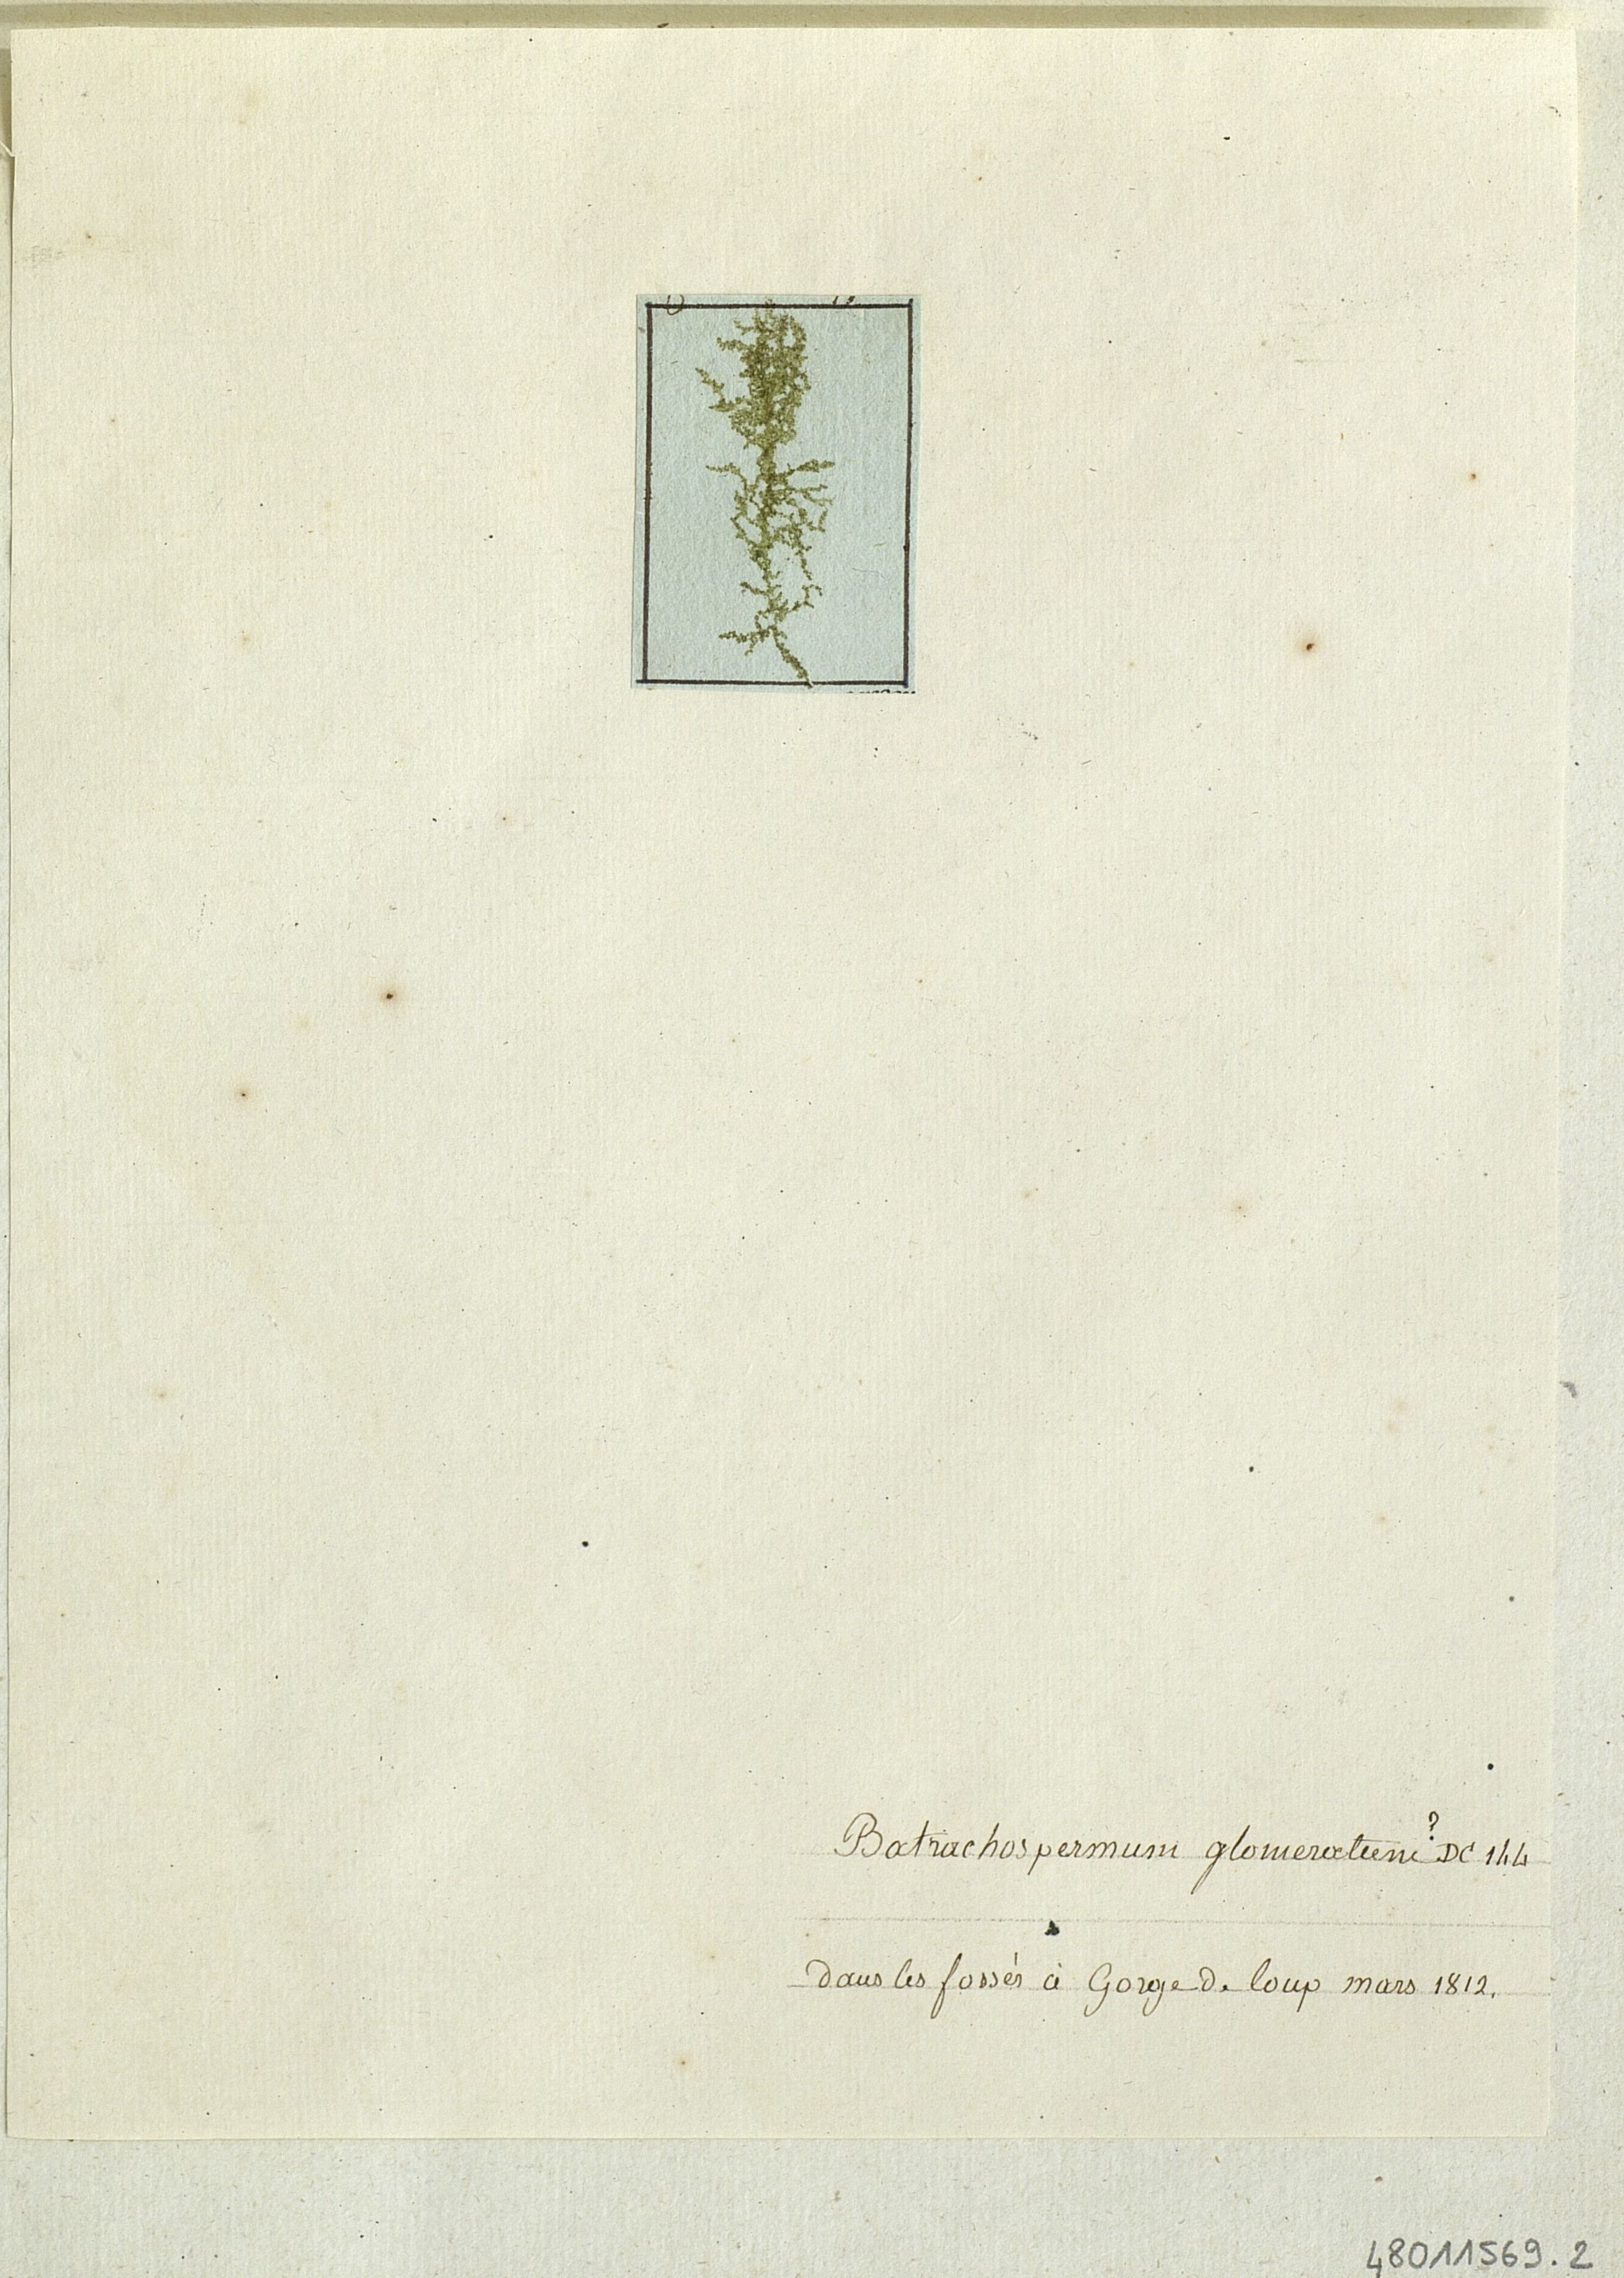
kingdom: Plantae
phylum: Rhodophyta
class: Florideophyceae
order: Batrachospermales
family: Batrachospermaceae
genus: Batrachospermum
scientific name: Batrachospermum
